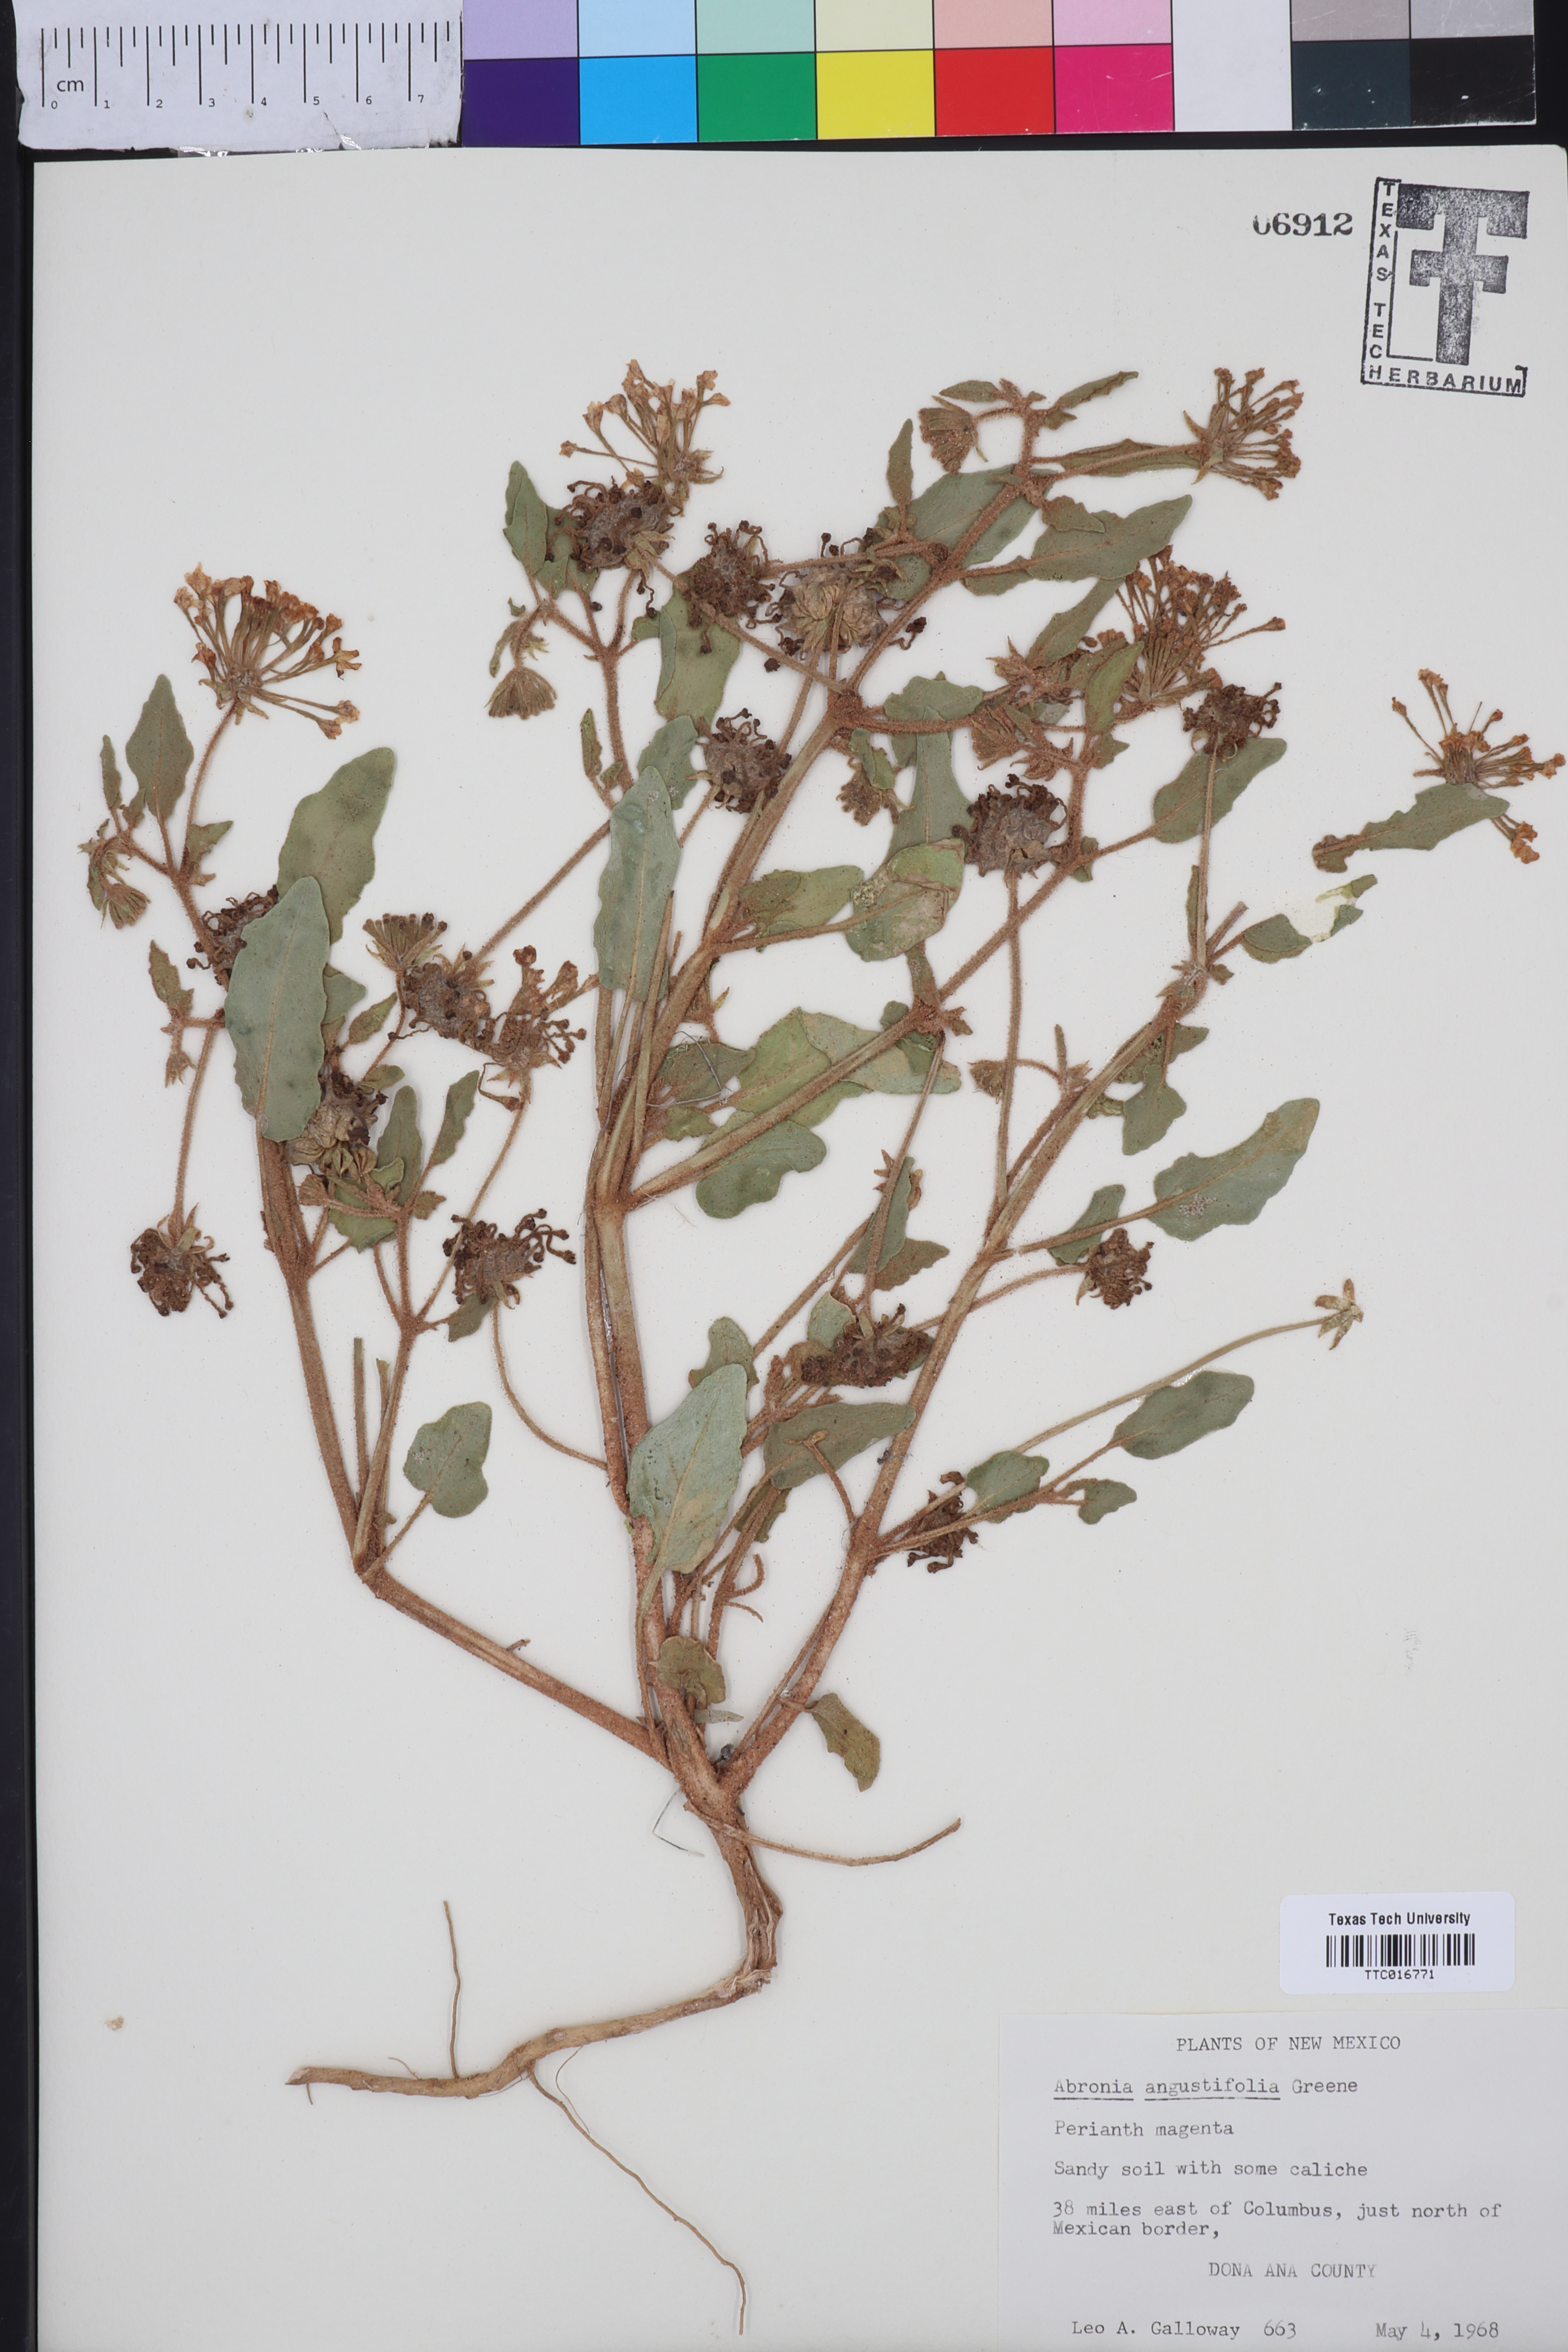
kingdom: Plantae
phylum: Tracheophyta
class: Magnoliopsida
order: Caryophyllales
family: Nyctaginaceae
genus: Abronia
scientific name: Abronia angustifolia
